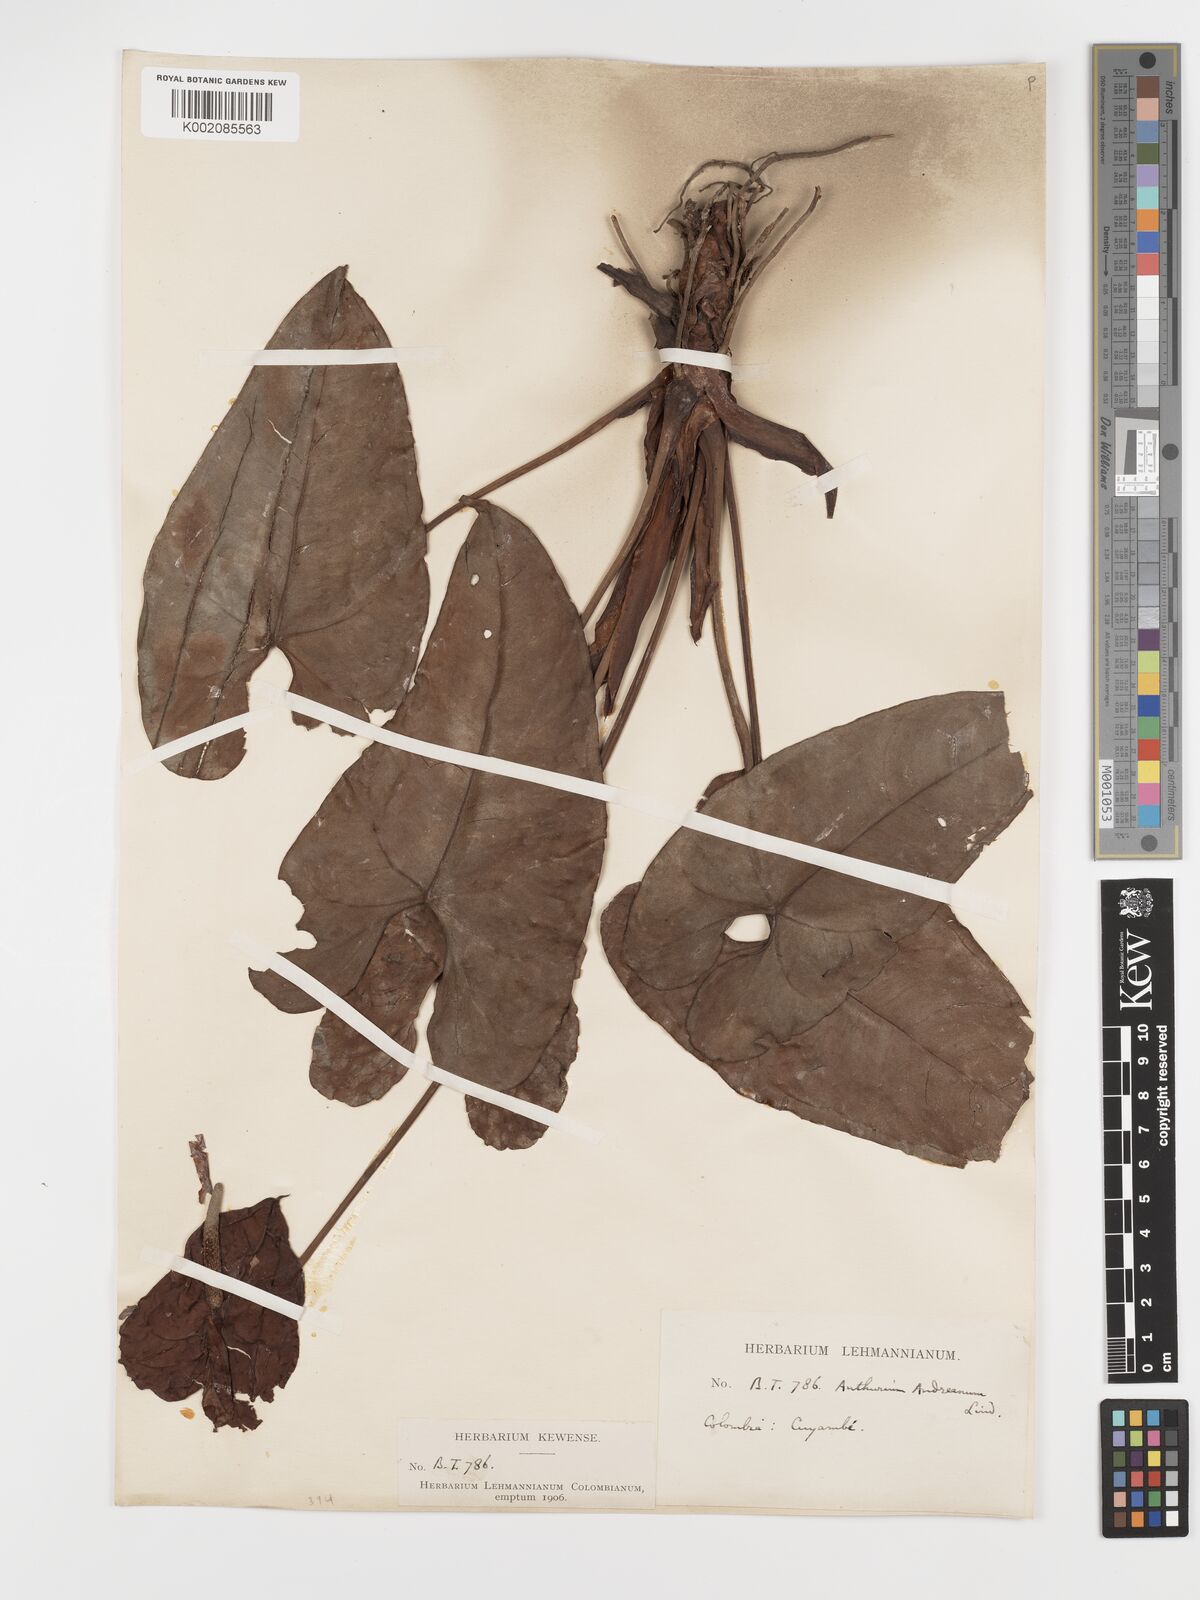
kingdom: Plantae
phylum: Tracheophyta
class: Liliopsida
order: Alismatales
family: Araceae
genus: Anthurium
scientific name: Anthurium andraeanum
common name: Flamingo-flower
